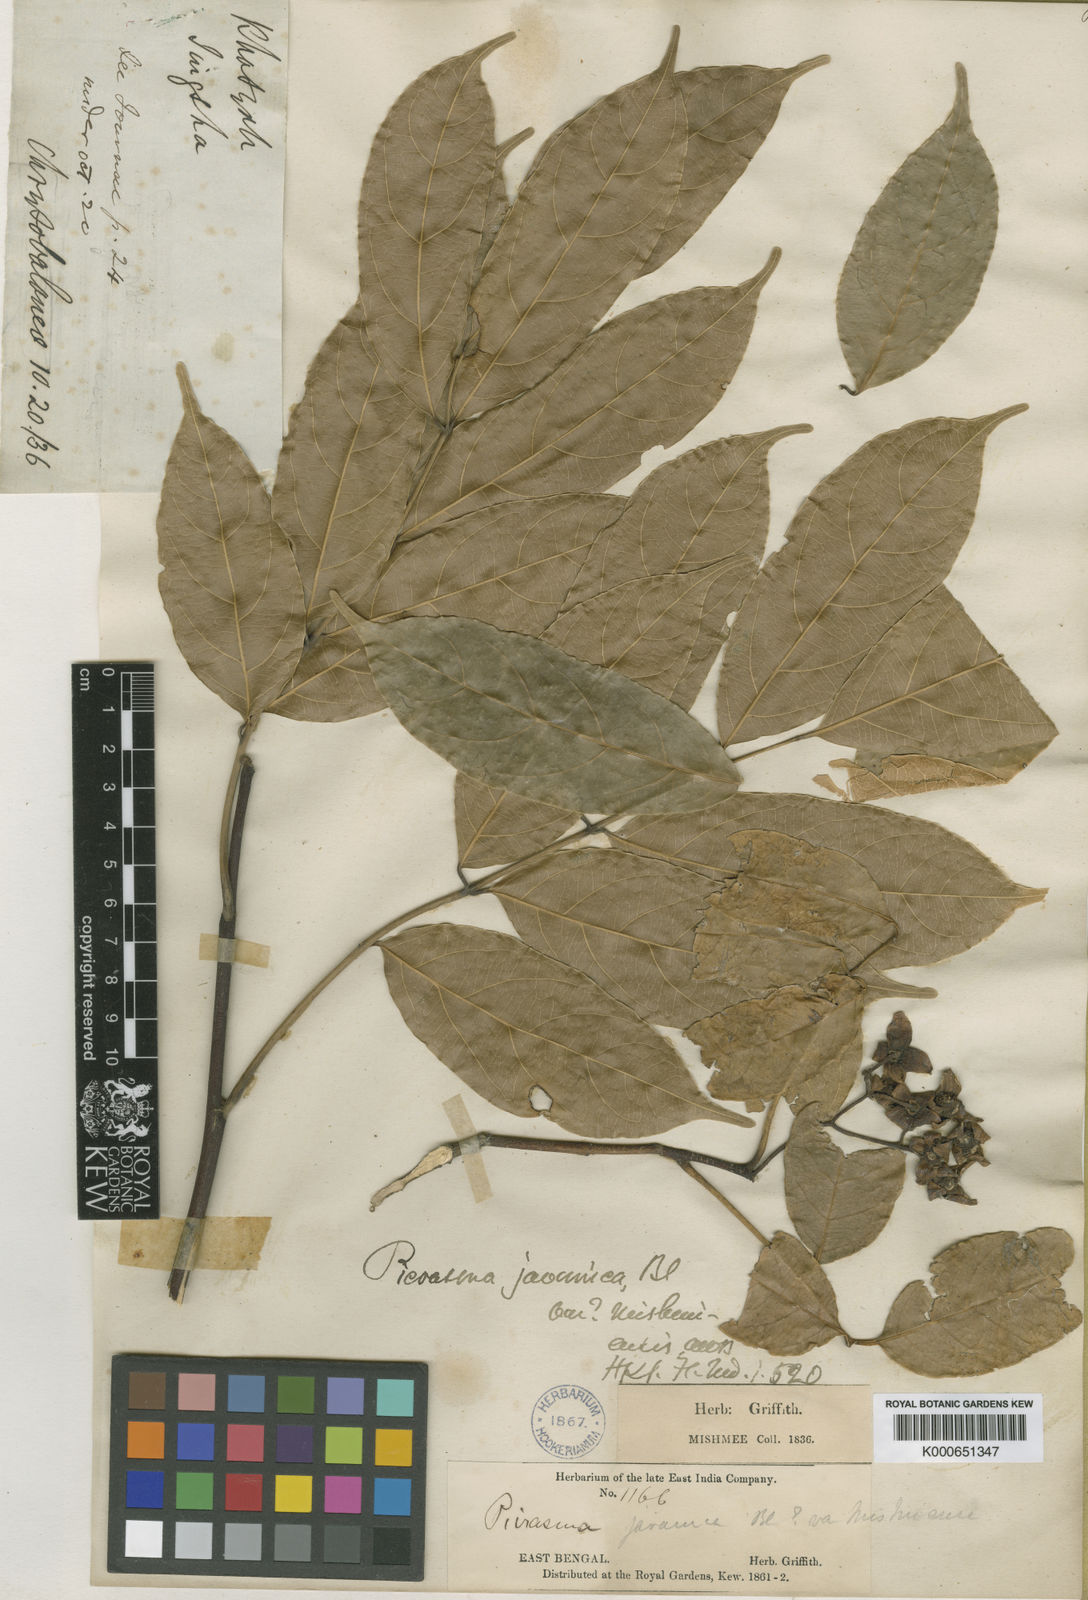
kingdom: Plantae
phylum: Tracheophyta
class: Magnoliopsida
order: Sapindales
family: Simaroubaceae
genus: Picrasma
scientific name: Picrasma javanica
